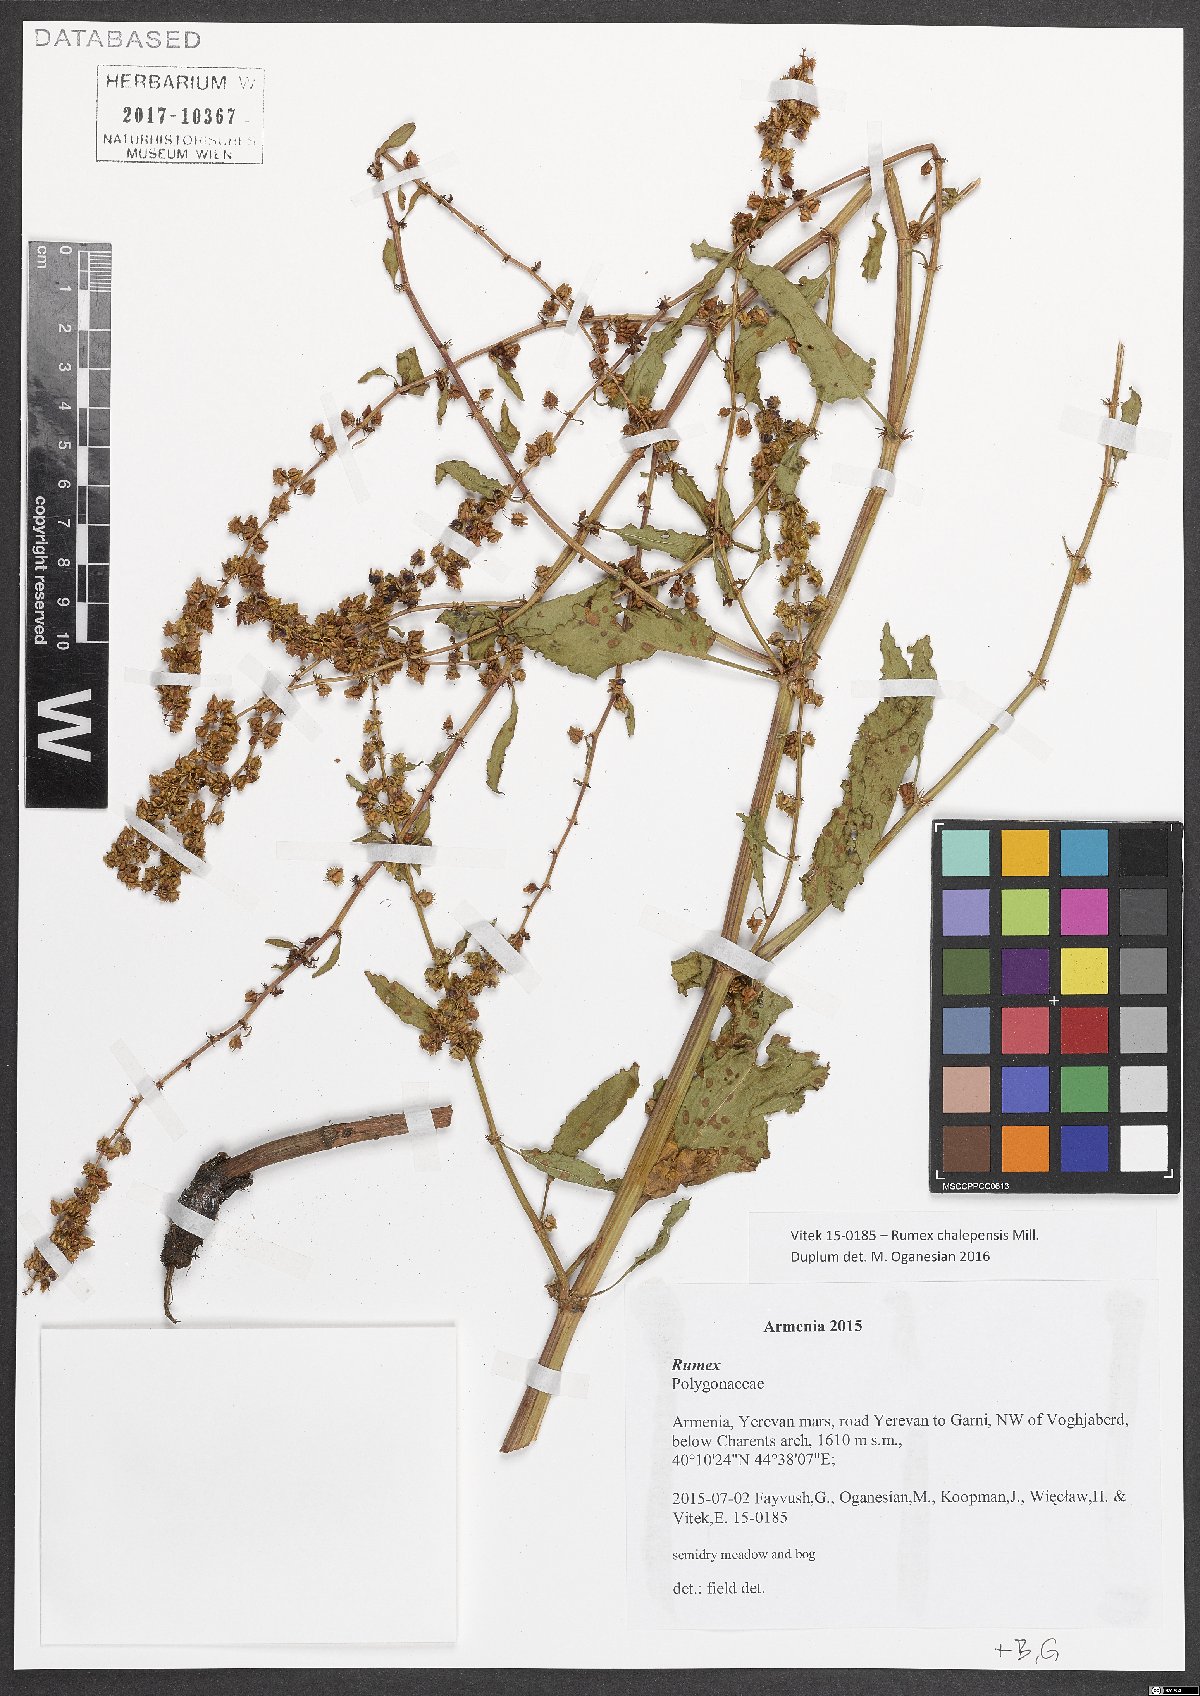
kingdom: Plantae
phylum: Tracheophyta
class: Magnoliopsida
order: Caryophyllales
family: Polygonaceae
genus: Rumex
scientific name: Rumex chalepensis
